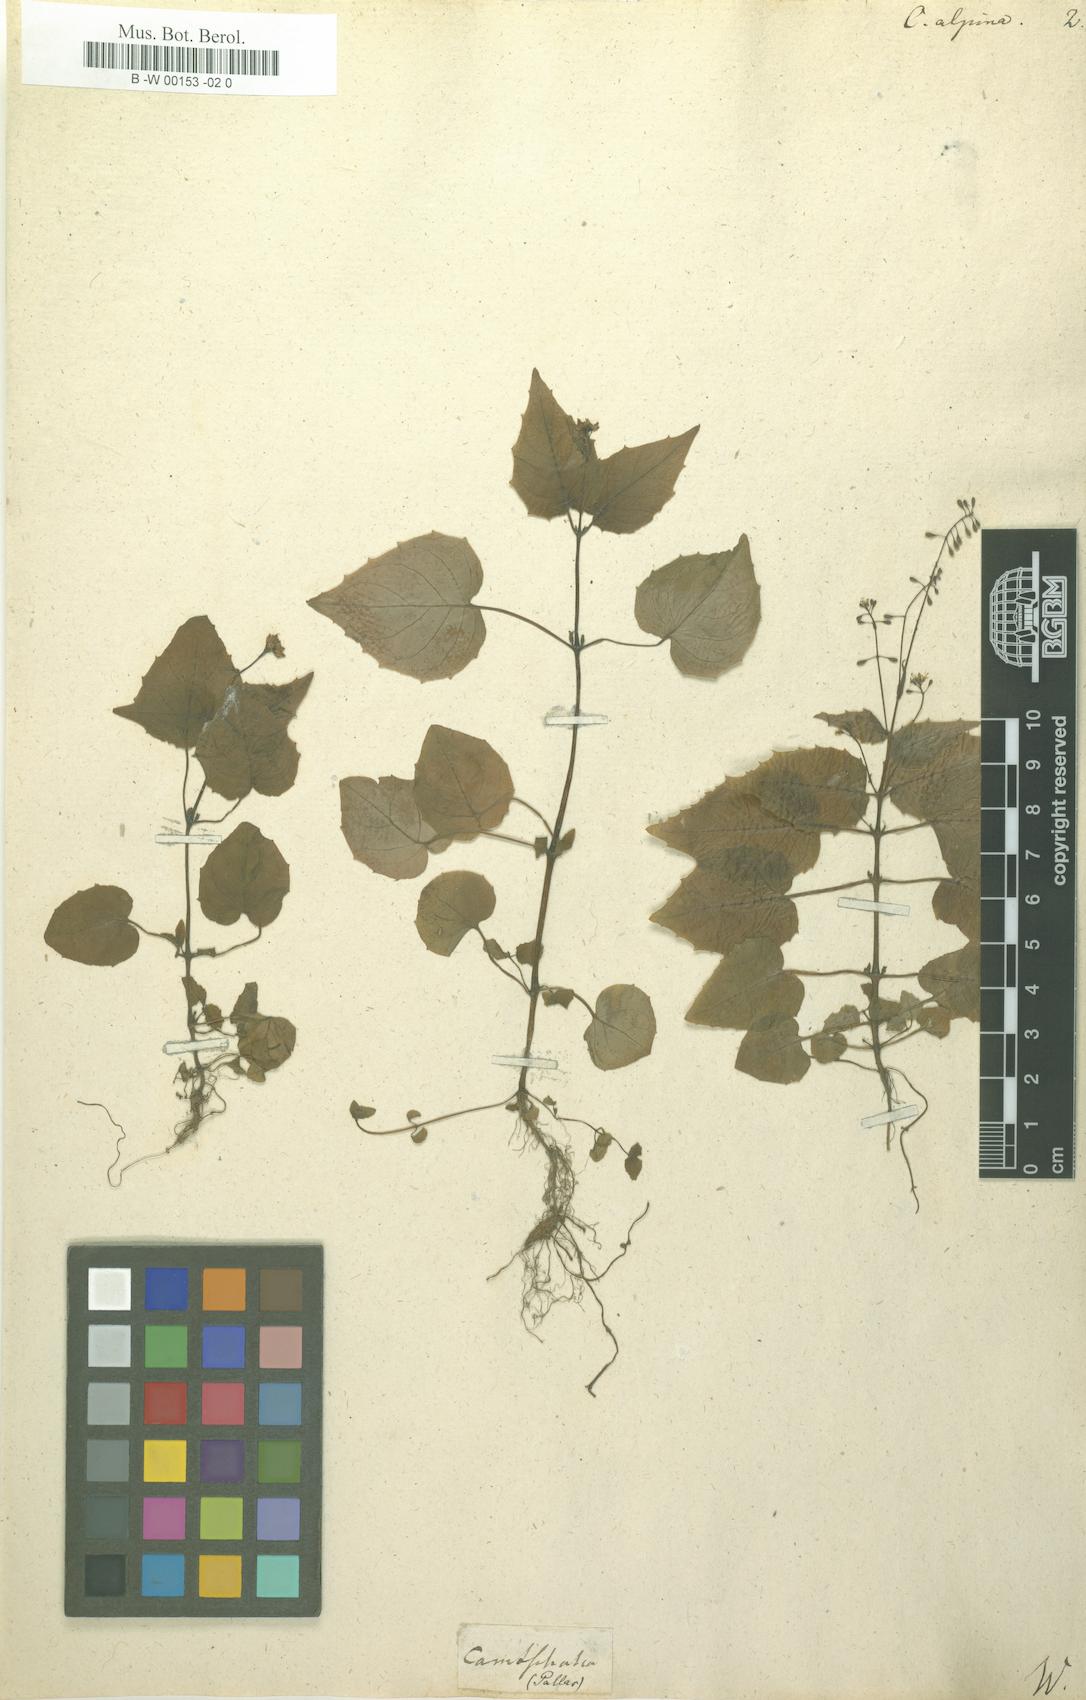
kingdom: Plantae
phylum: Tracheophyta
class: Magnoliopsida
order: Myrtales
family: Onagraceae
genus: Circaea
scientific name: Circaea alpina
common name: Alpine enchanter's-nightshade
